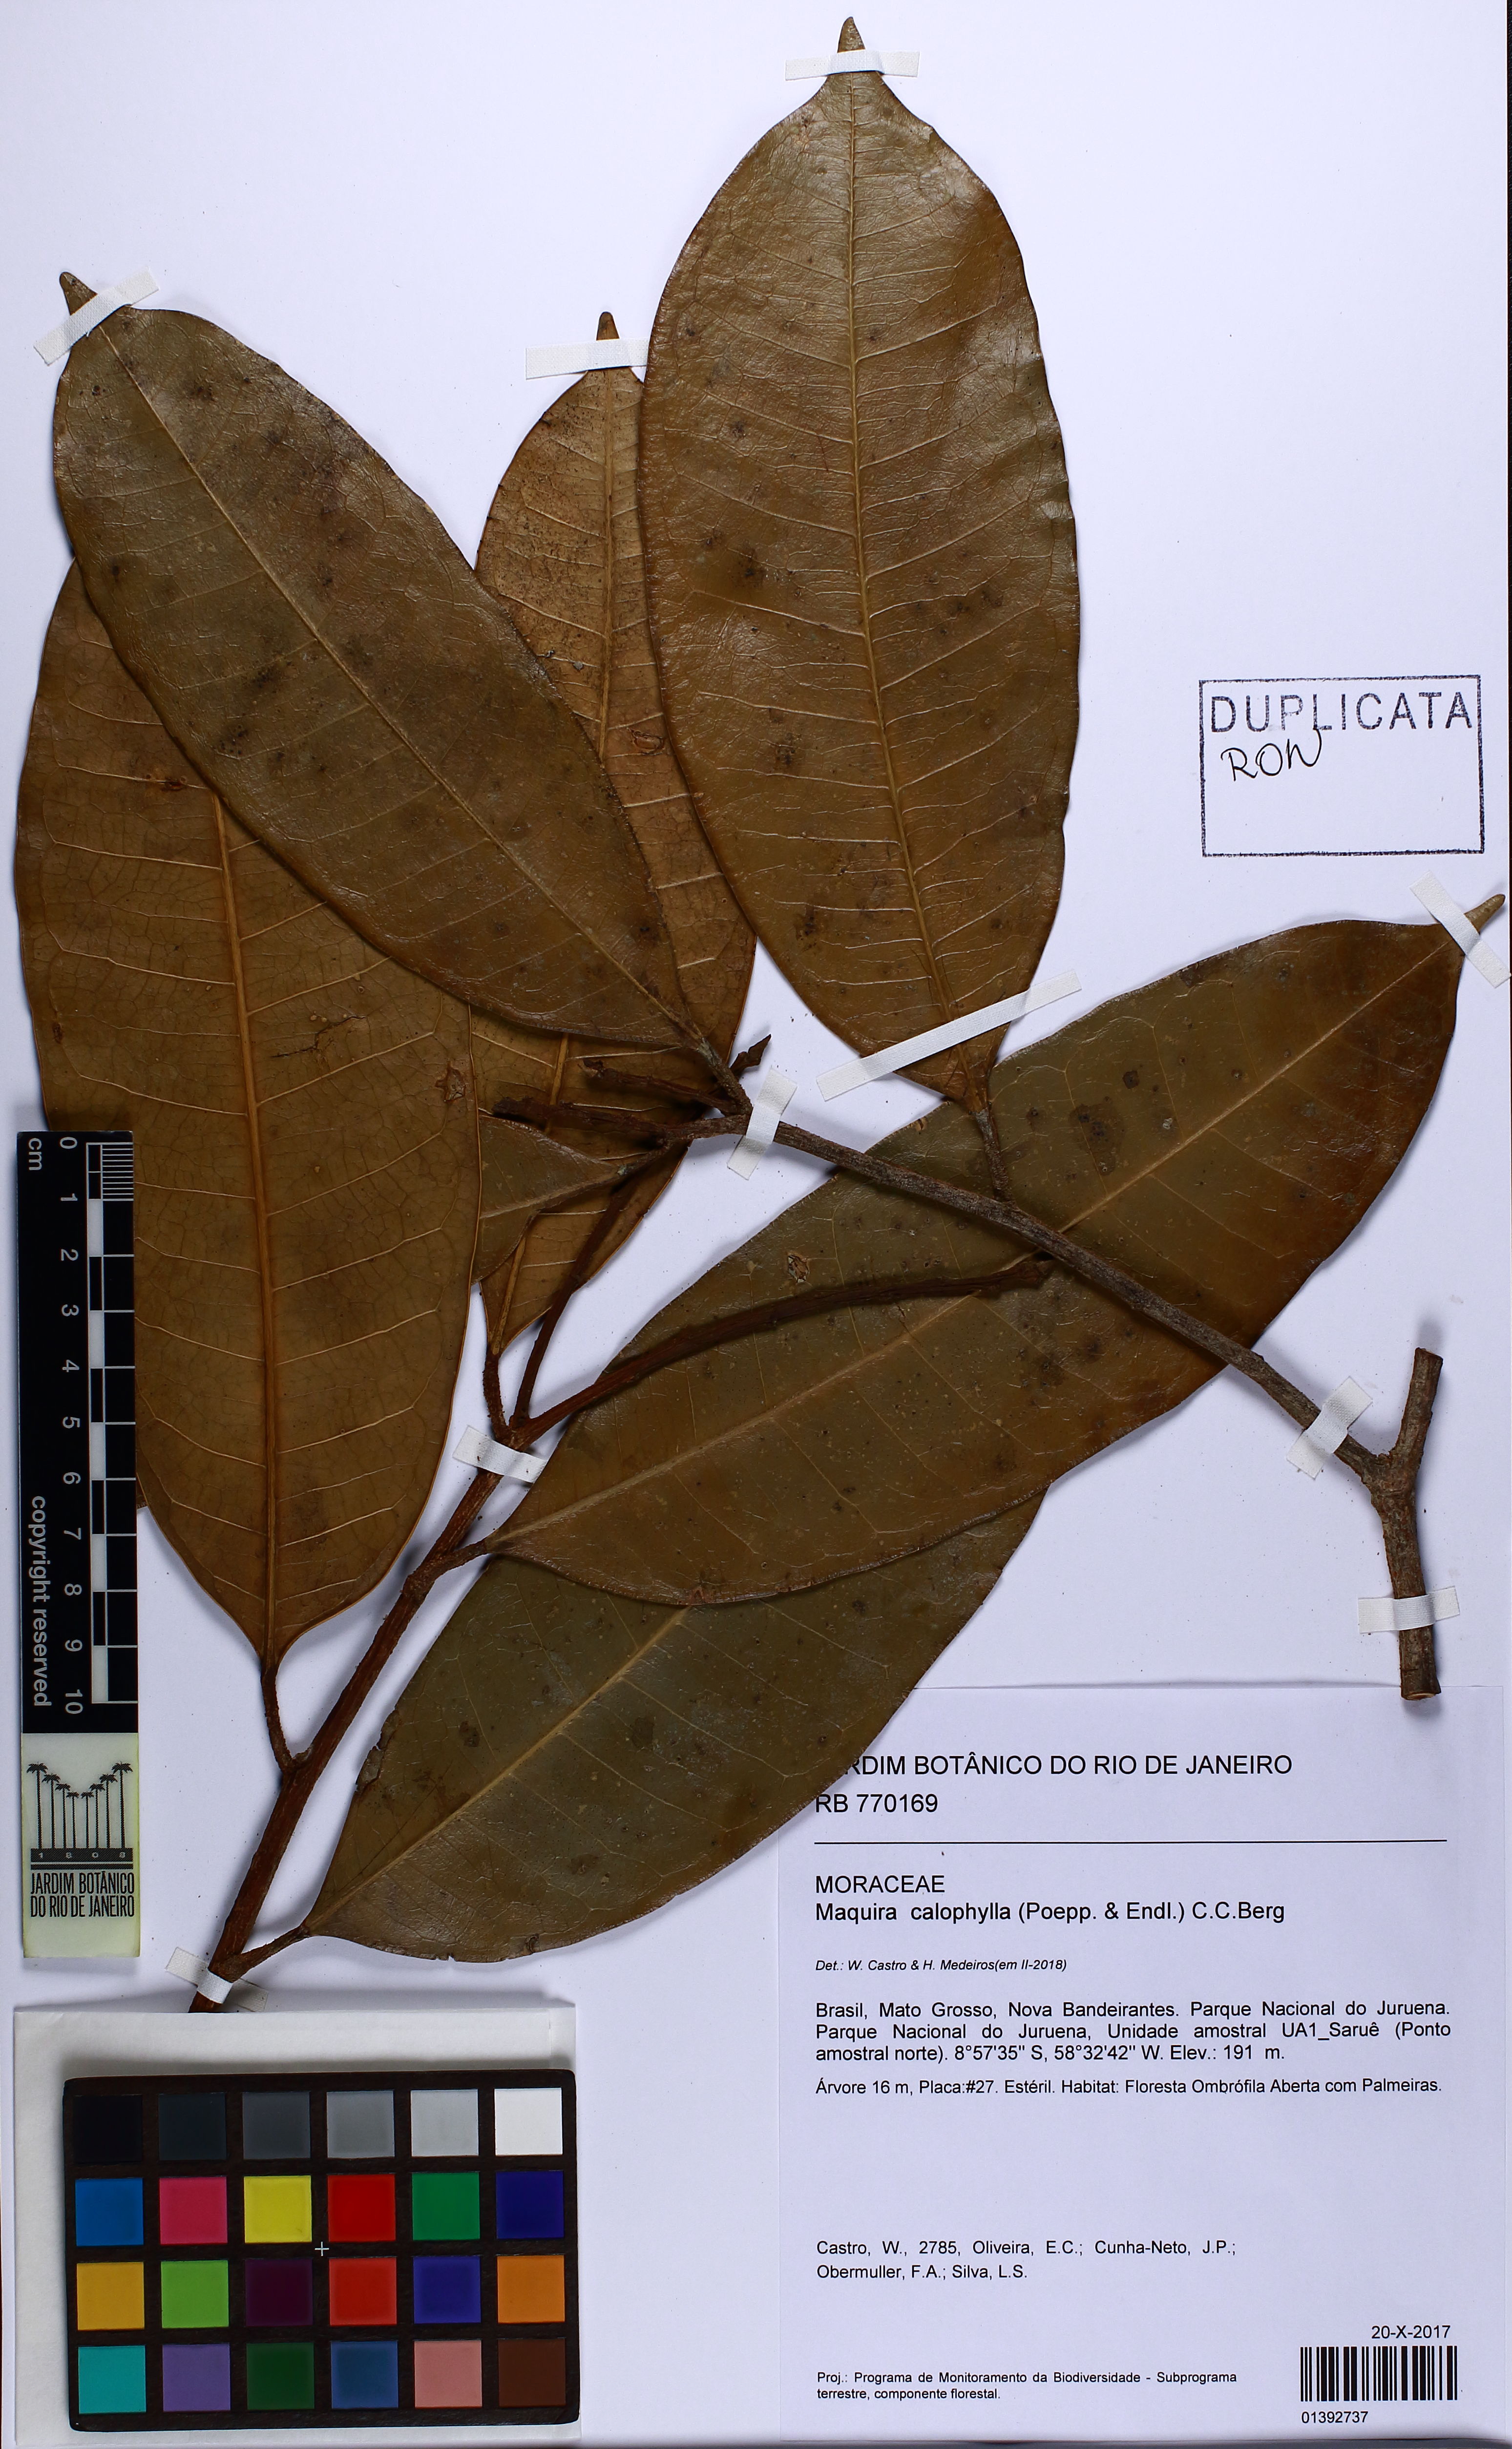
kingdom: Plantae
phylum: Tracheophyta
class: Magnoliopsida
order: Rosales
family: Moraceae
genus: Maquira
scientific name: Maquira calophylla
